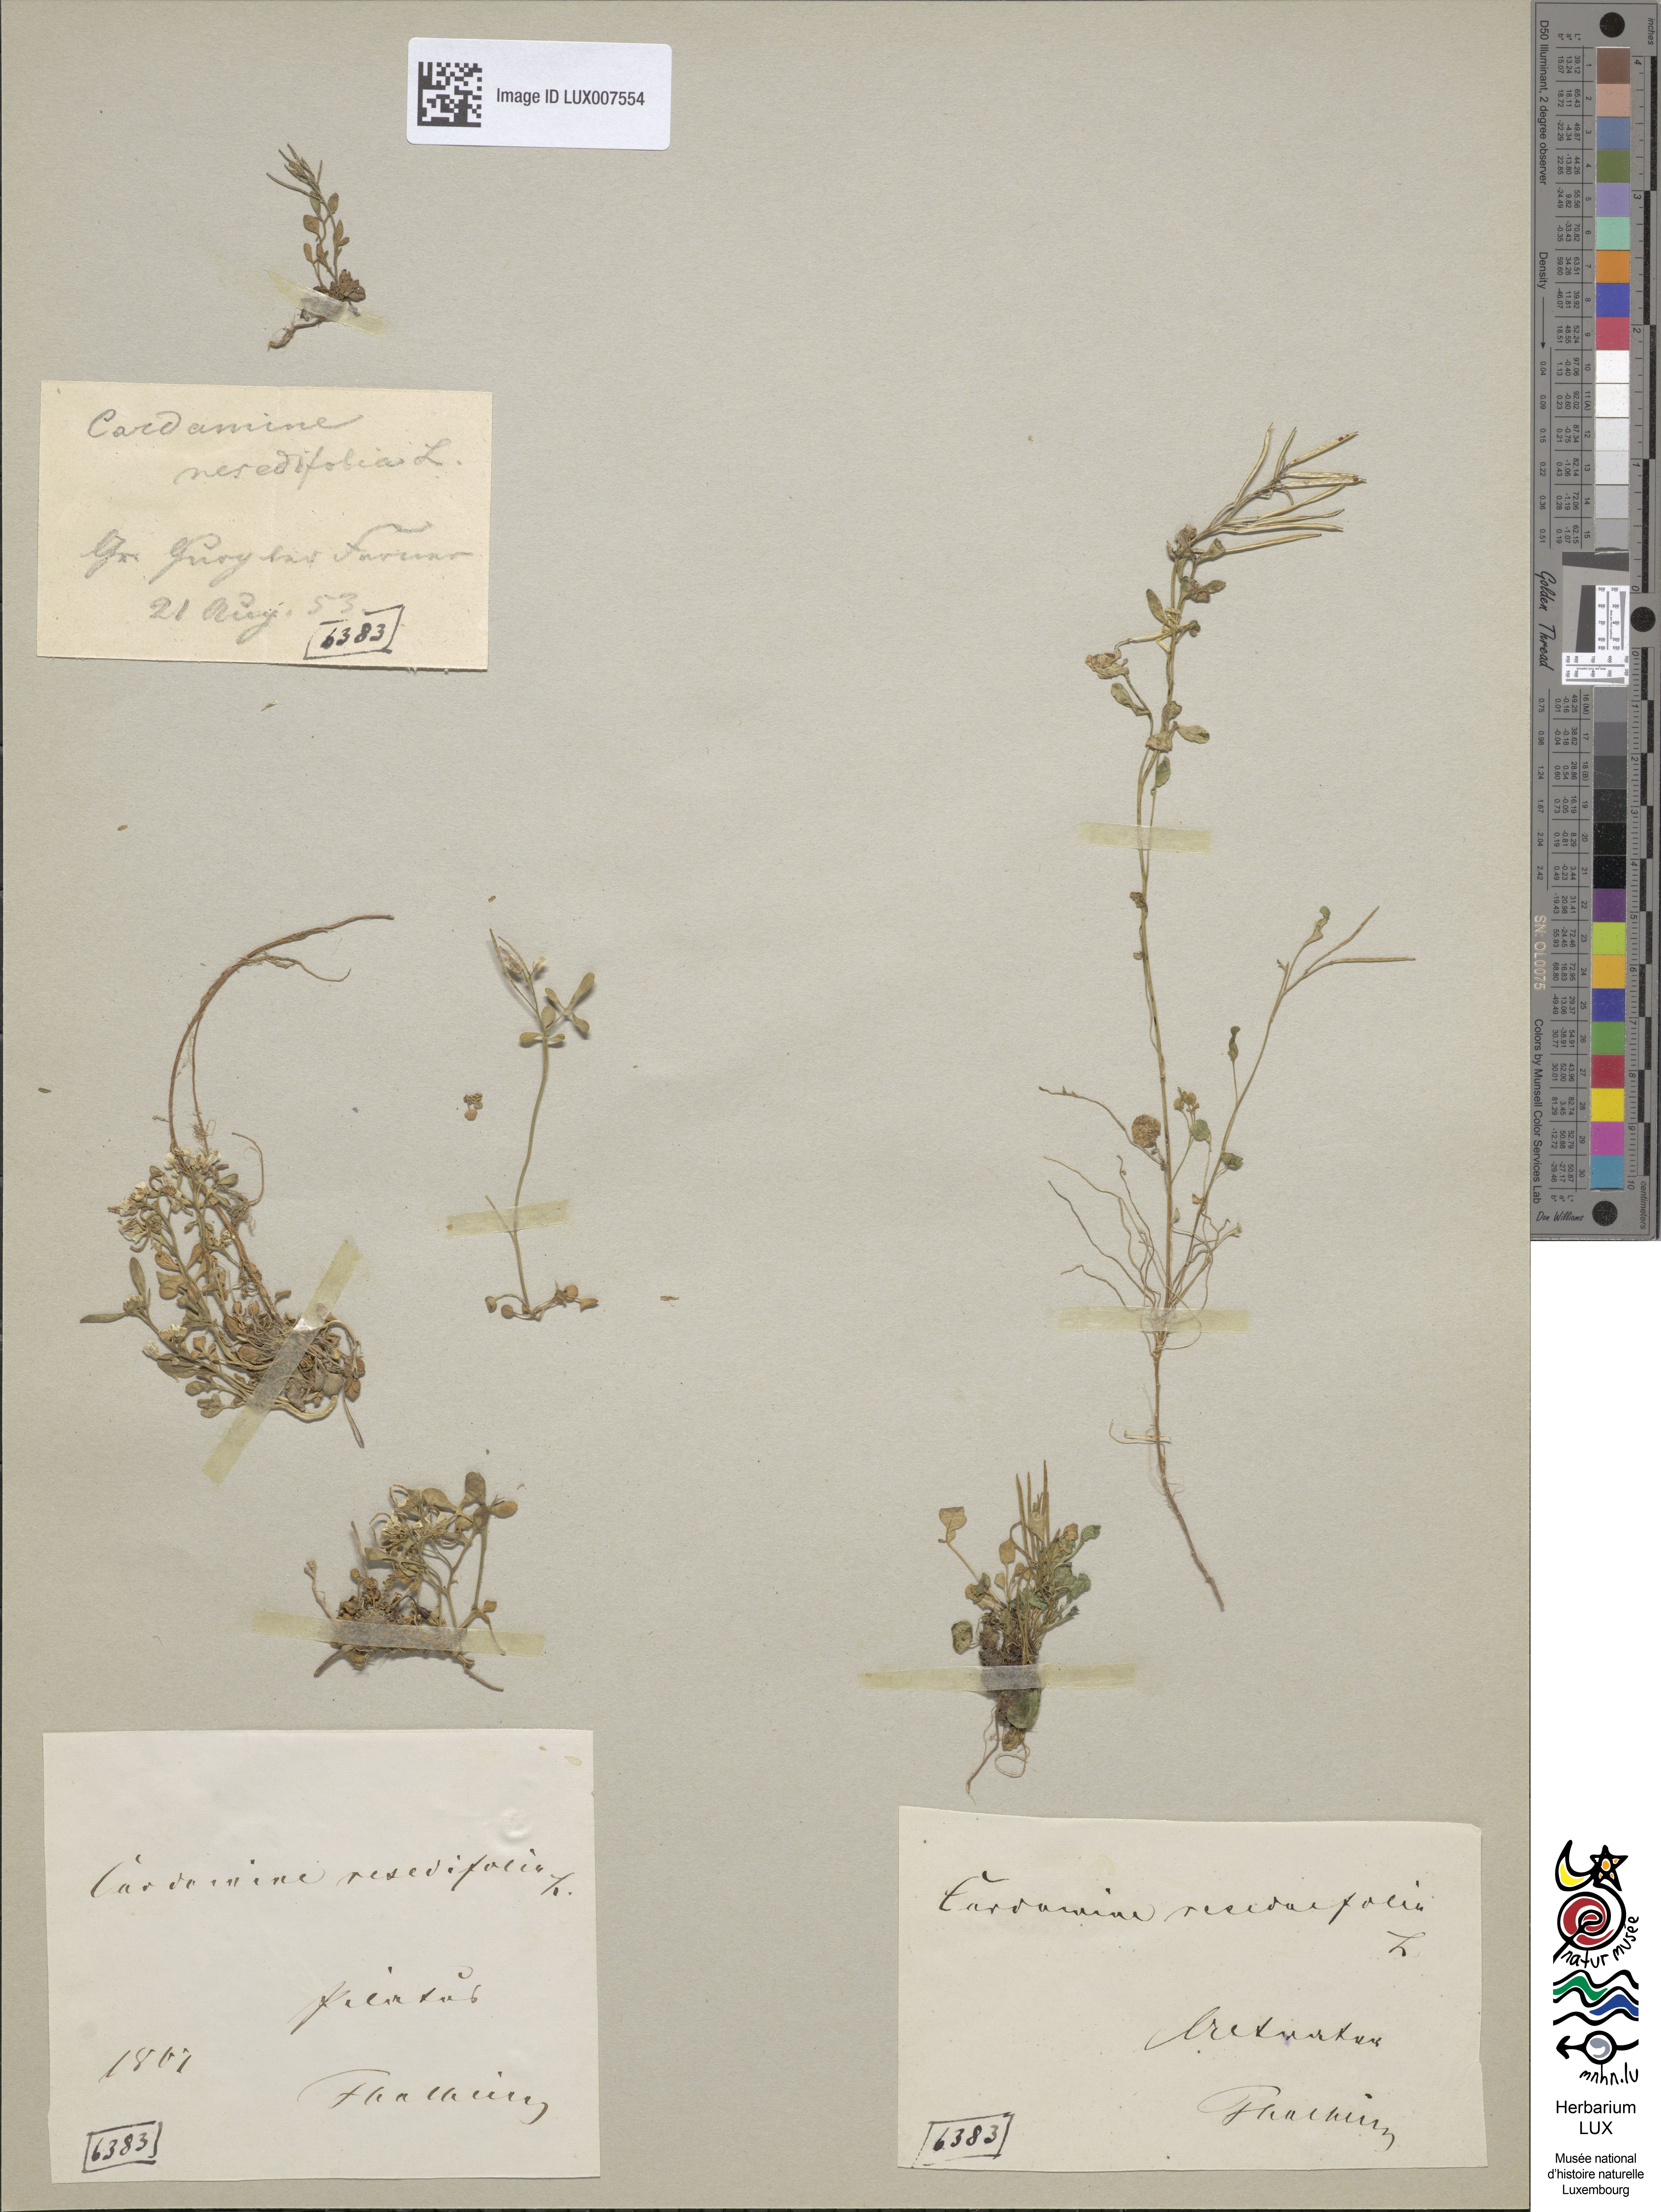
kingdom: Plantae
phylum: Tracheophyta
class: Magnoliopsida
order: Brassicales
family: Brassicaceae
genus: Cardamine
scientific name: Cardamine resedifolia
